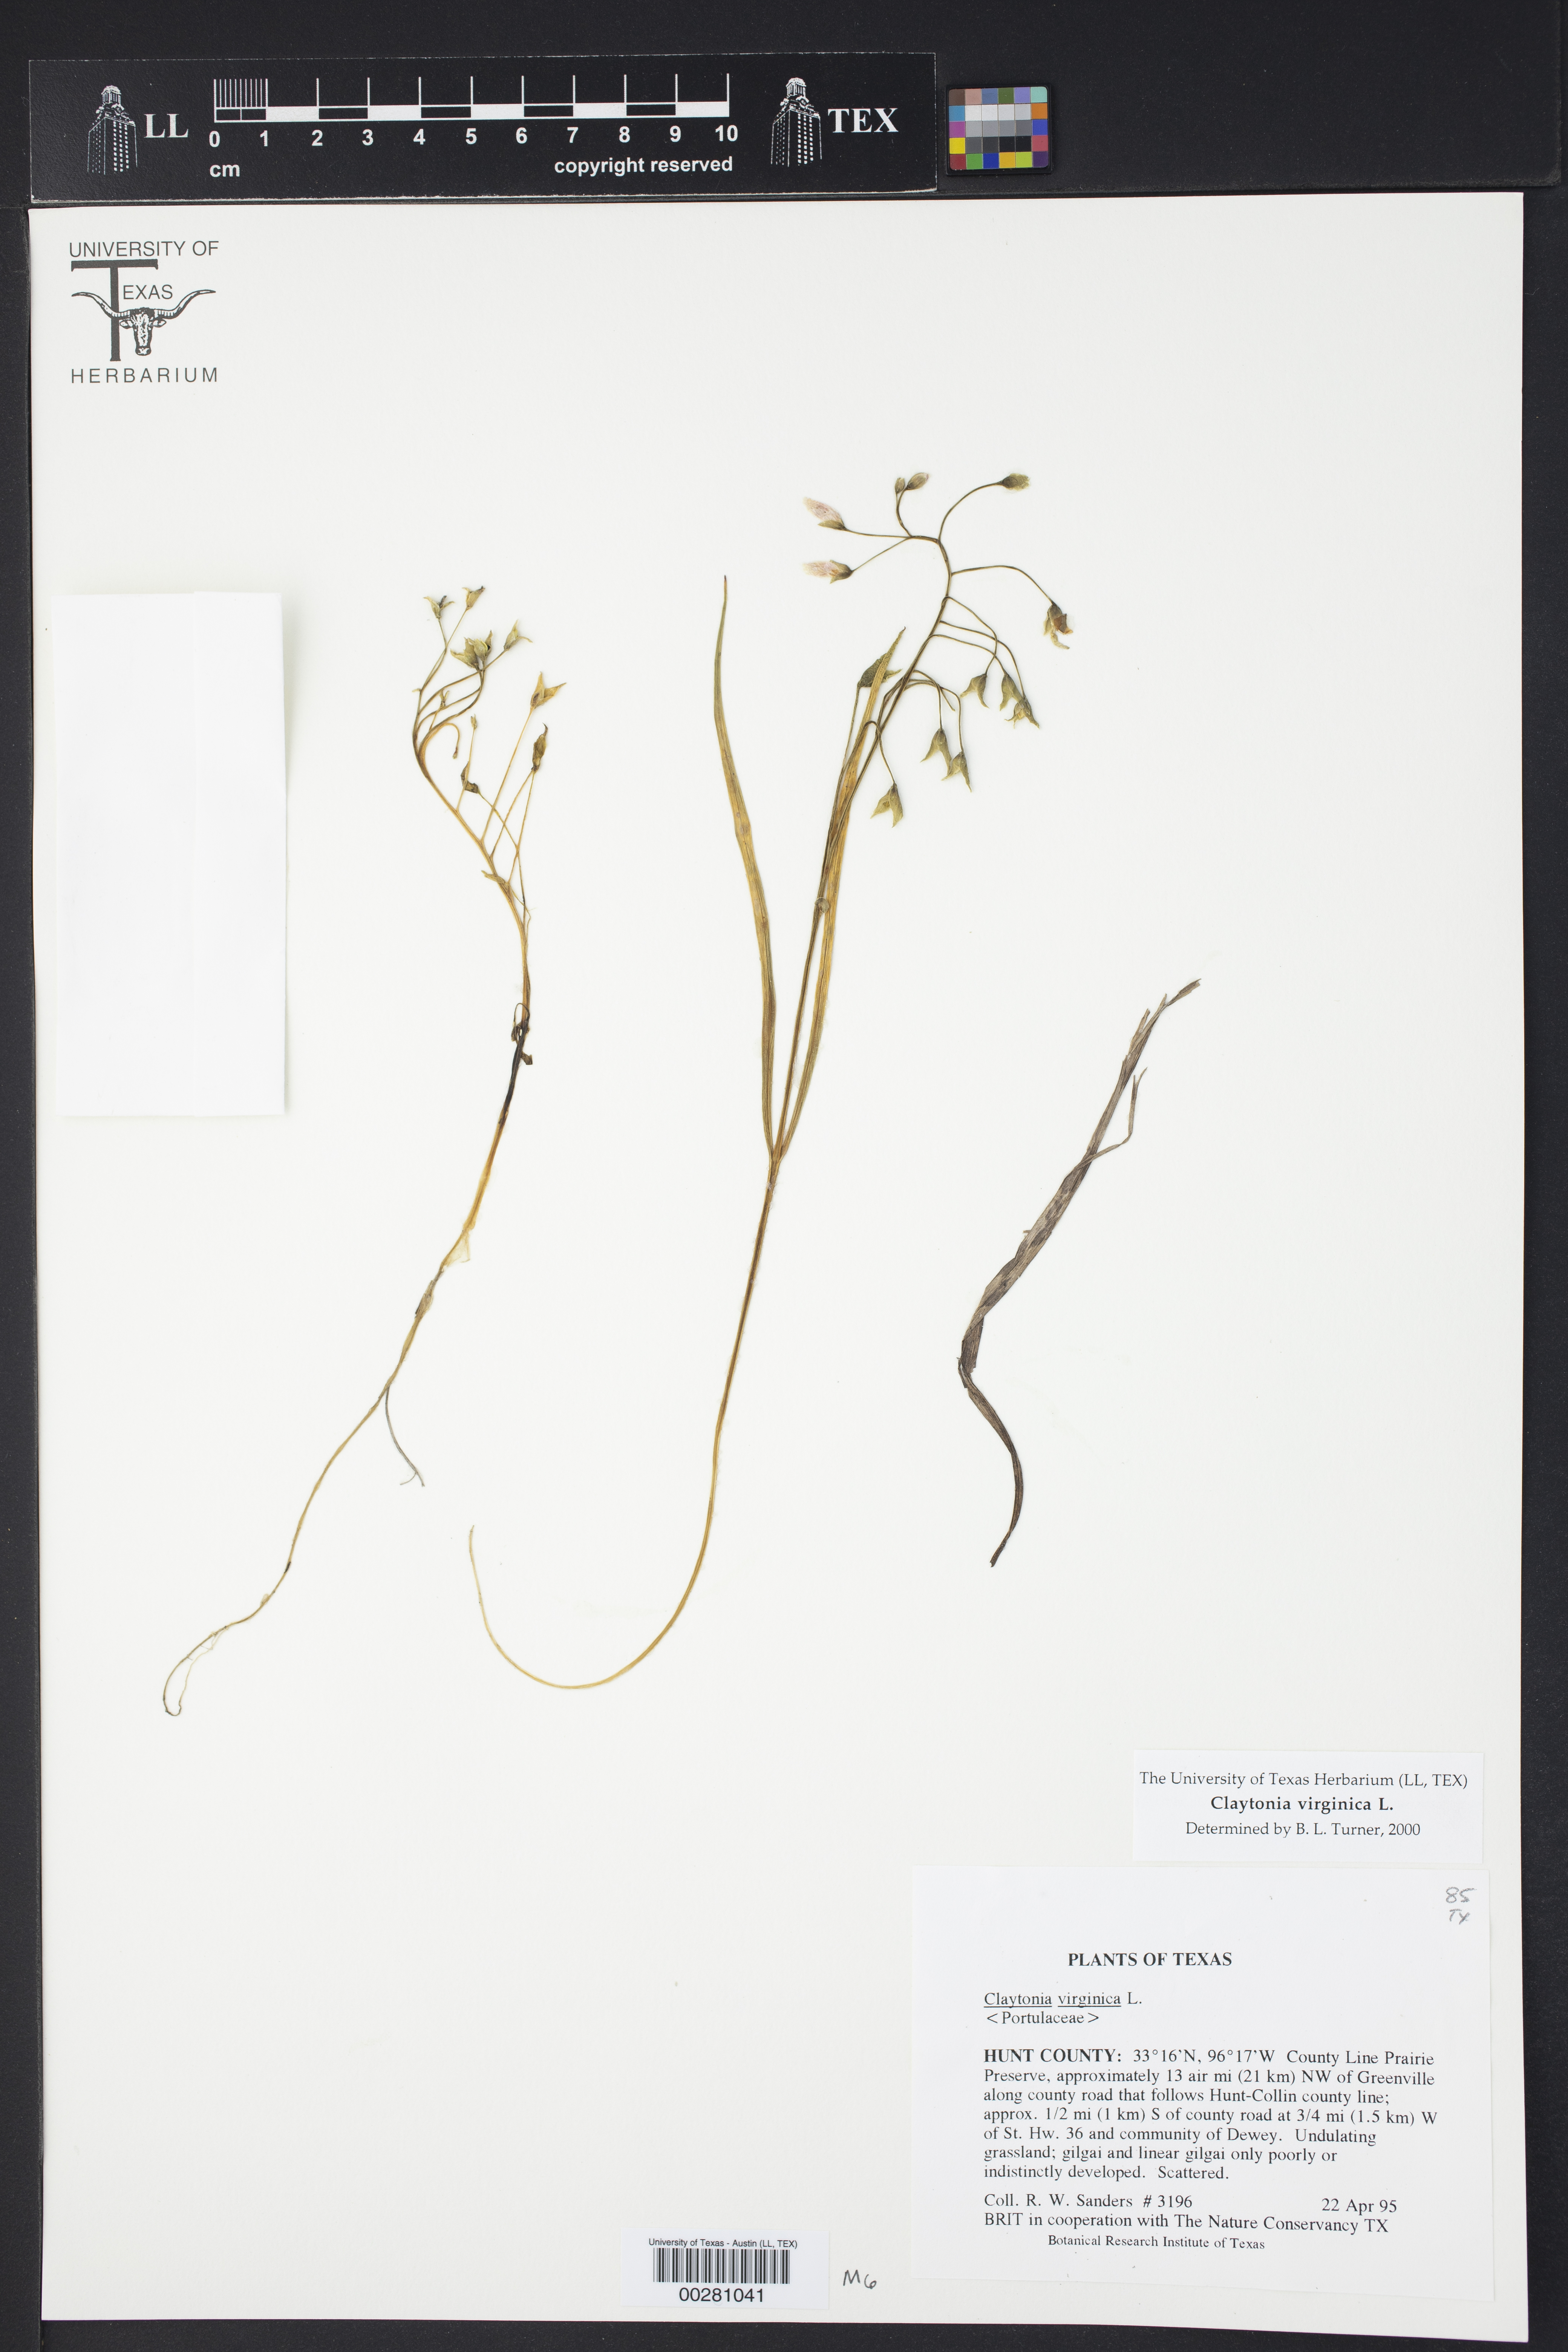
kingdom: Plantae
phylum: Tracheophyta
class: Magnoliopsida
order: Caryophyllales
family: Montiaceae
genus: Claytonia
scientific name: Claytonia virginica
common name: Virginia springbeauty
